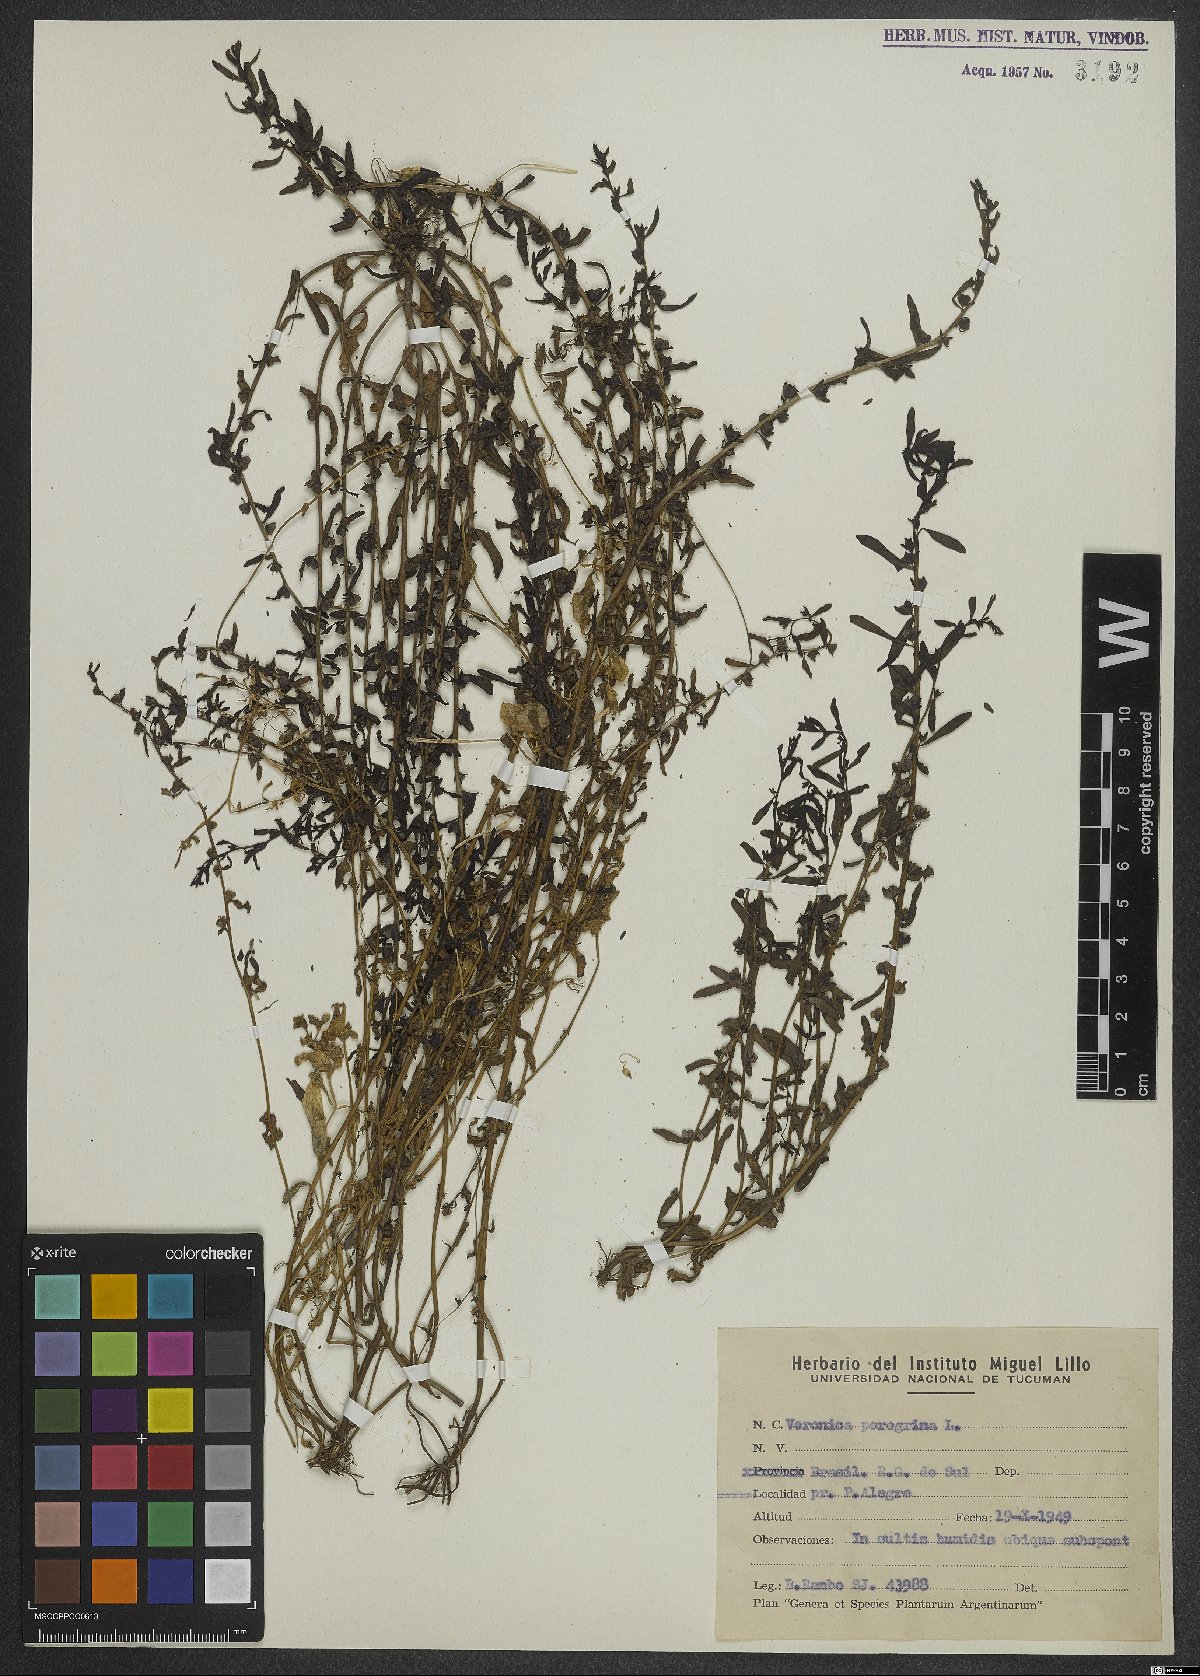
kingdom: Plantae
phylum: Tracheophyta
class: Magnoliopsida
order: Lamiales
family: Plantaginaceae
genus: Veronica
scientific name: Veronica peregrina
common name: Neckweed
